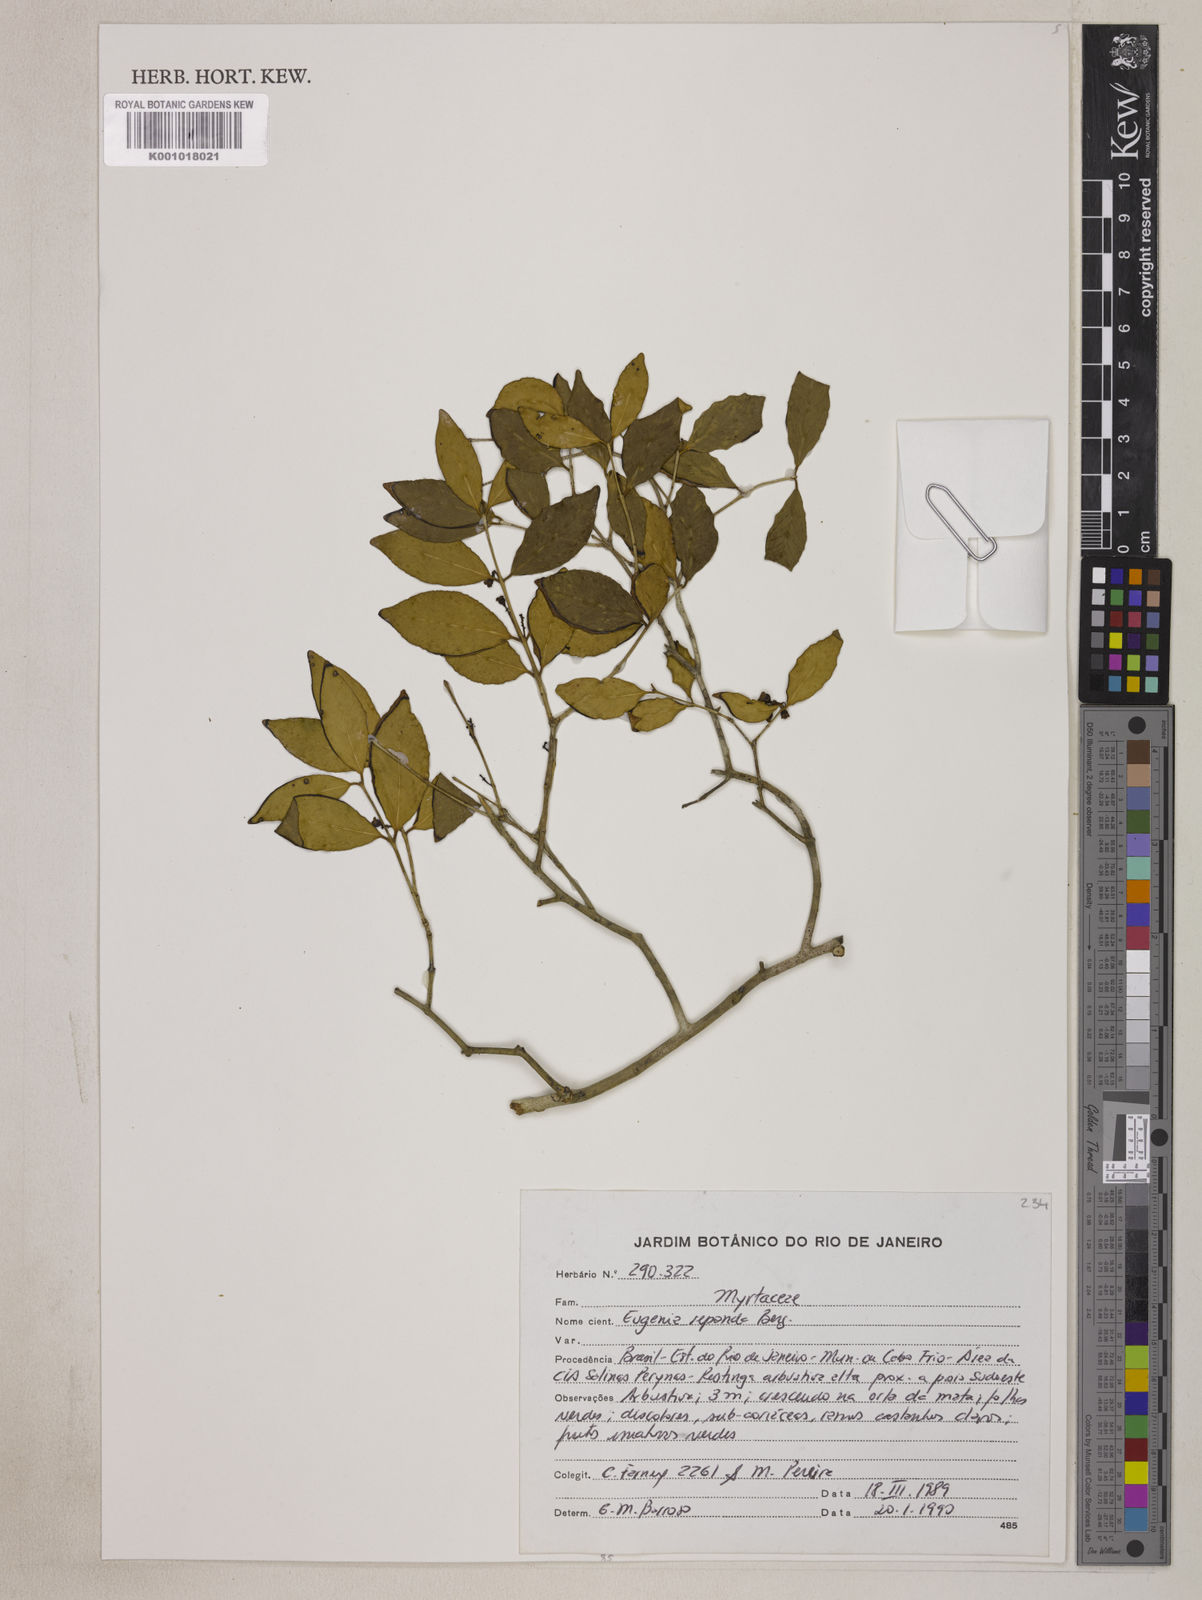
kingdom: Plantae
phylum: Tracheophyta
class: Magnoliopsida
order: Myrtales
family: Myrtaceae
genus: Eugenia
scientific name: Eugenia repanda
